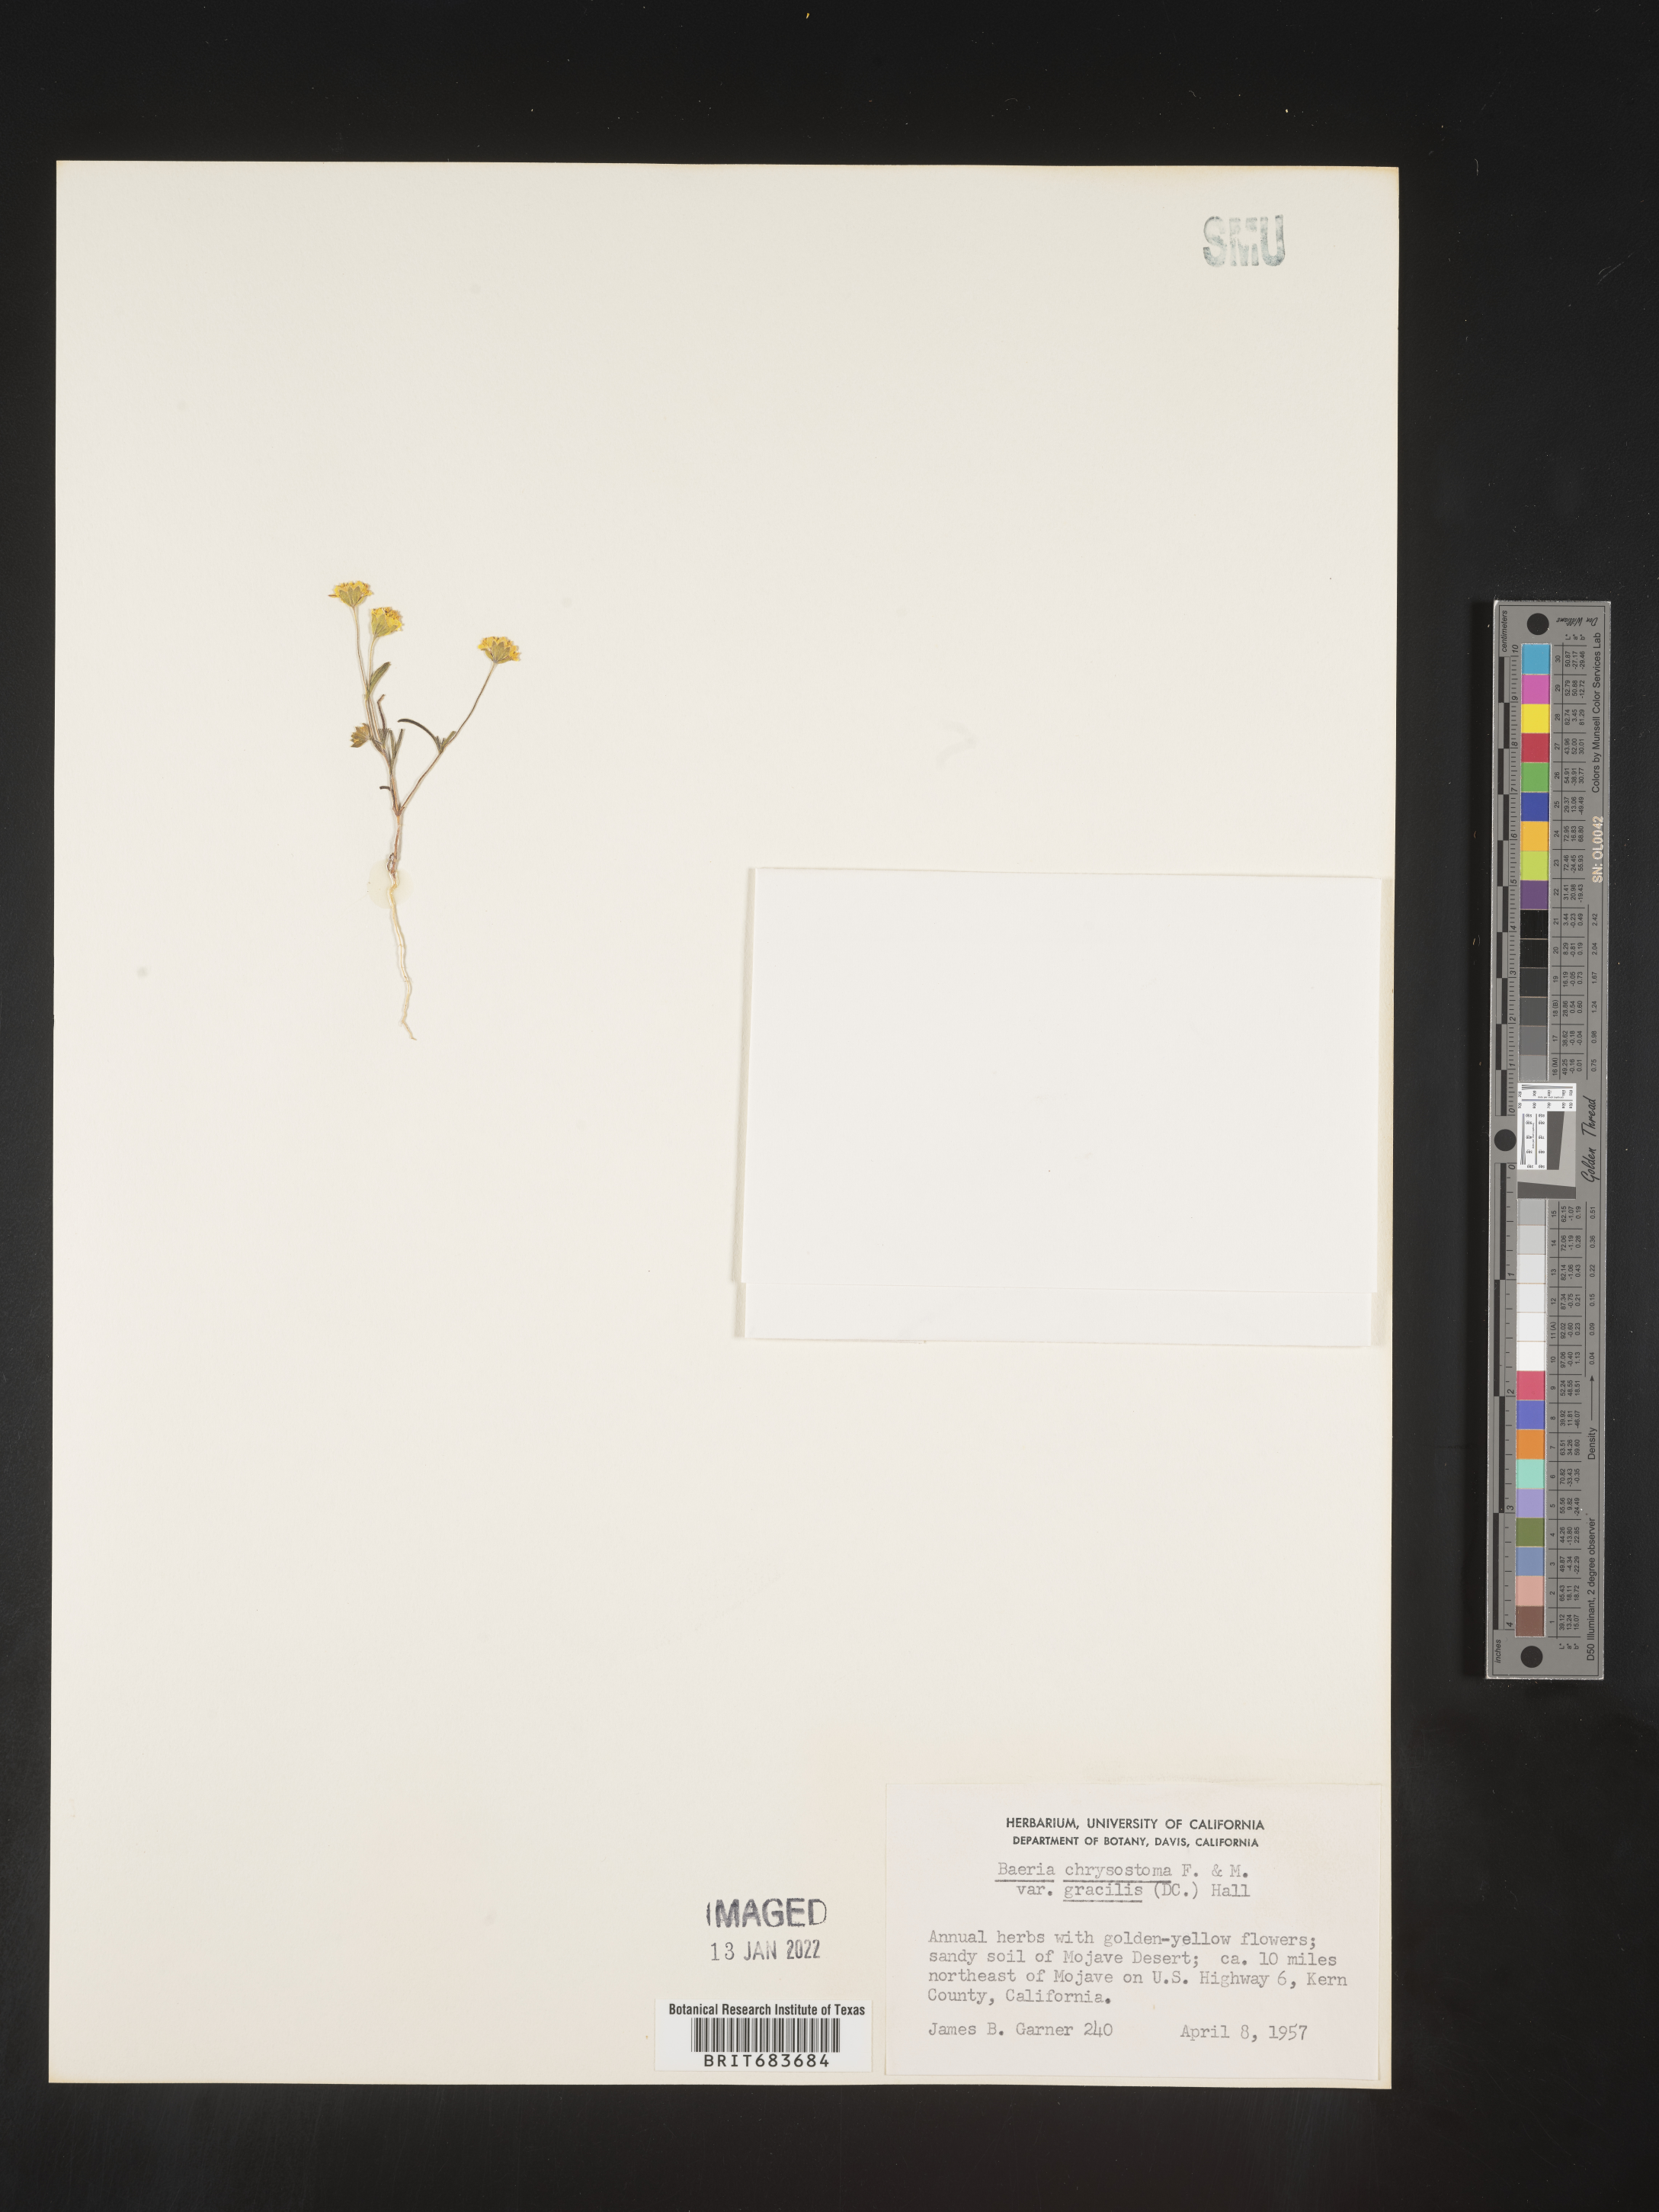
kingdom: Plantae
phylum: Tracheophyta
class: Magnoliopsida
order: Asterales
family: Asteraceae
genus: Lasthenia
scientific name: Lasthenia
